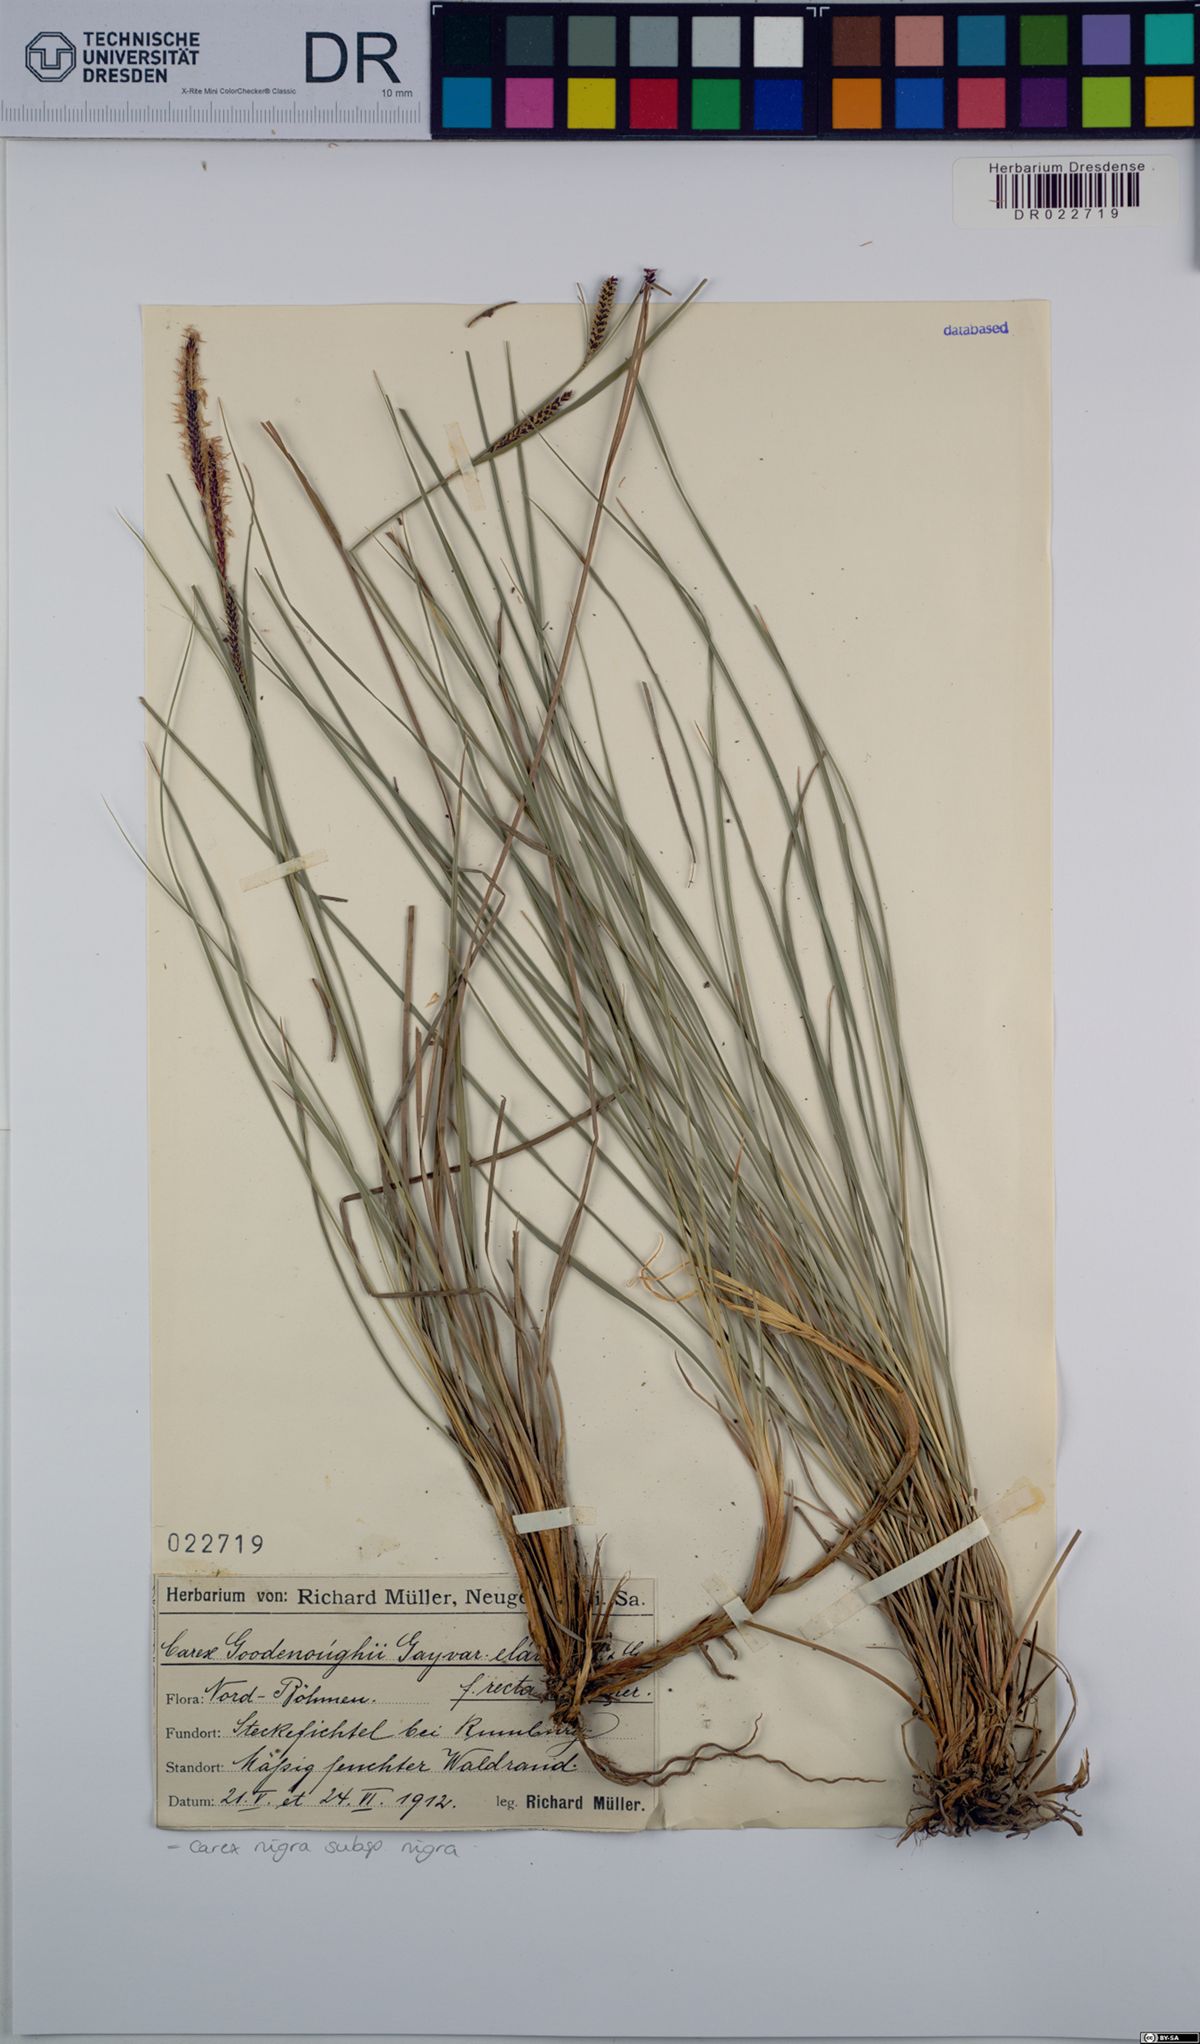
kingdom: Plantae
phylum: Tracheophyta
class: Liliopsida
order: Poales
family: Cyperaceae
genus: Carex
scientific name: Carex nigra
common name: Common sedge
